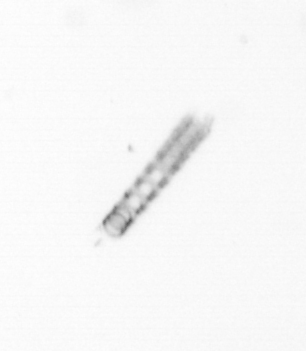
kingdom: Chromista
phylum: Ochrophyta
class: Bacillariophyceae
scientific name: Bacillariophyceae
